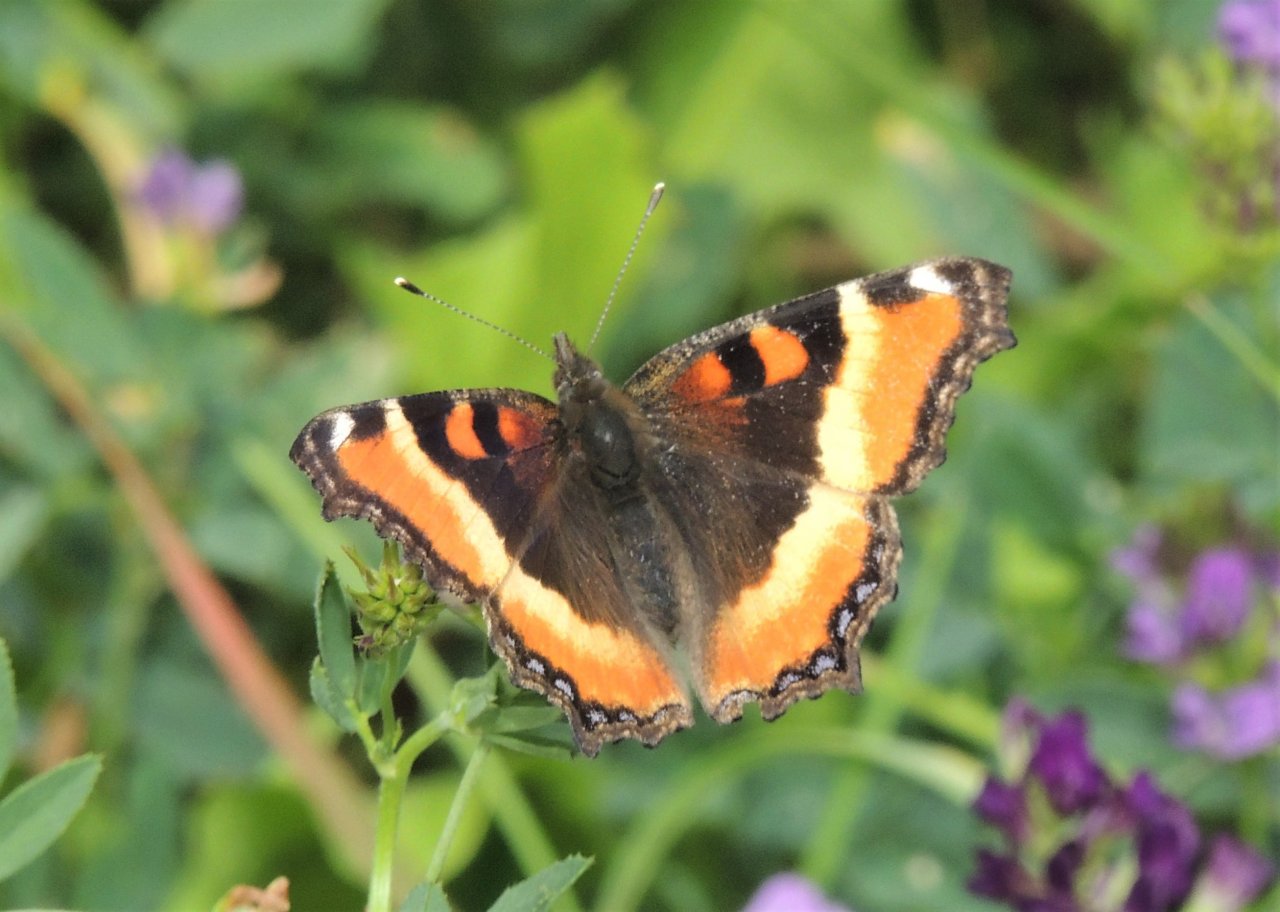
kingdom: Animalia
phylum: Arthropoda
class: Insecta
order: Lepidoptera
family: Nymphalidae
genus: Aglais
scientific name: Aglais milberti
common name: Milbert's Tortoiseshell
